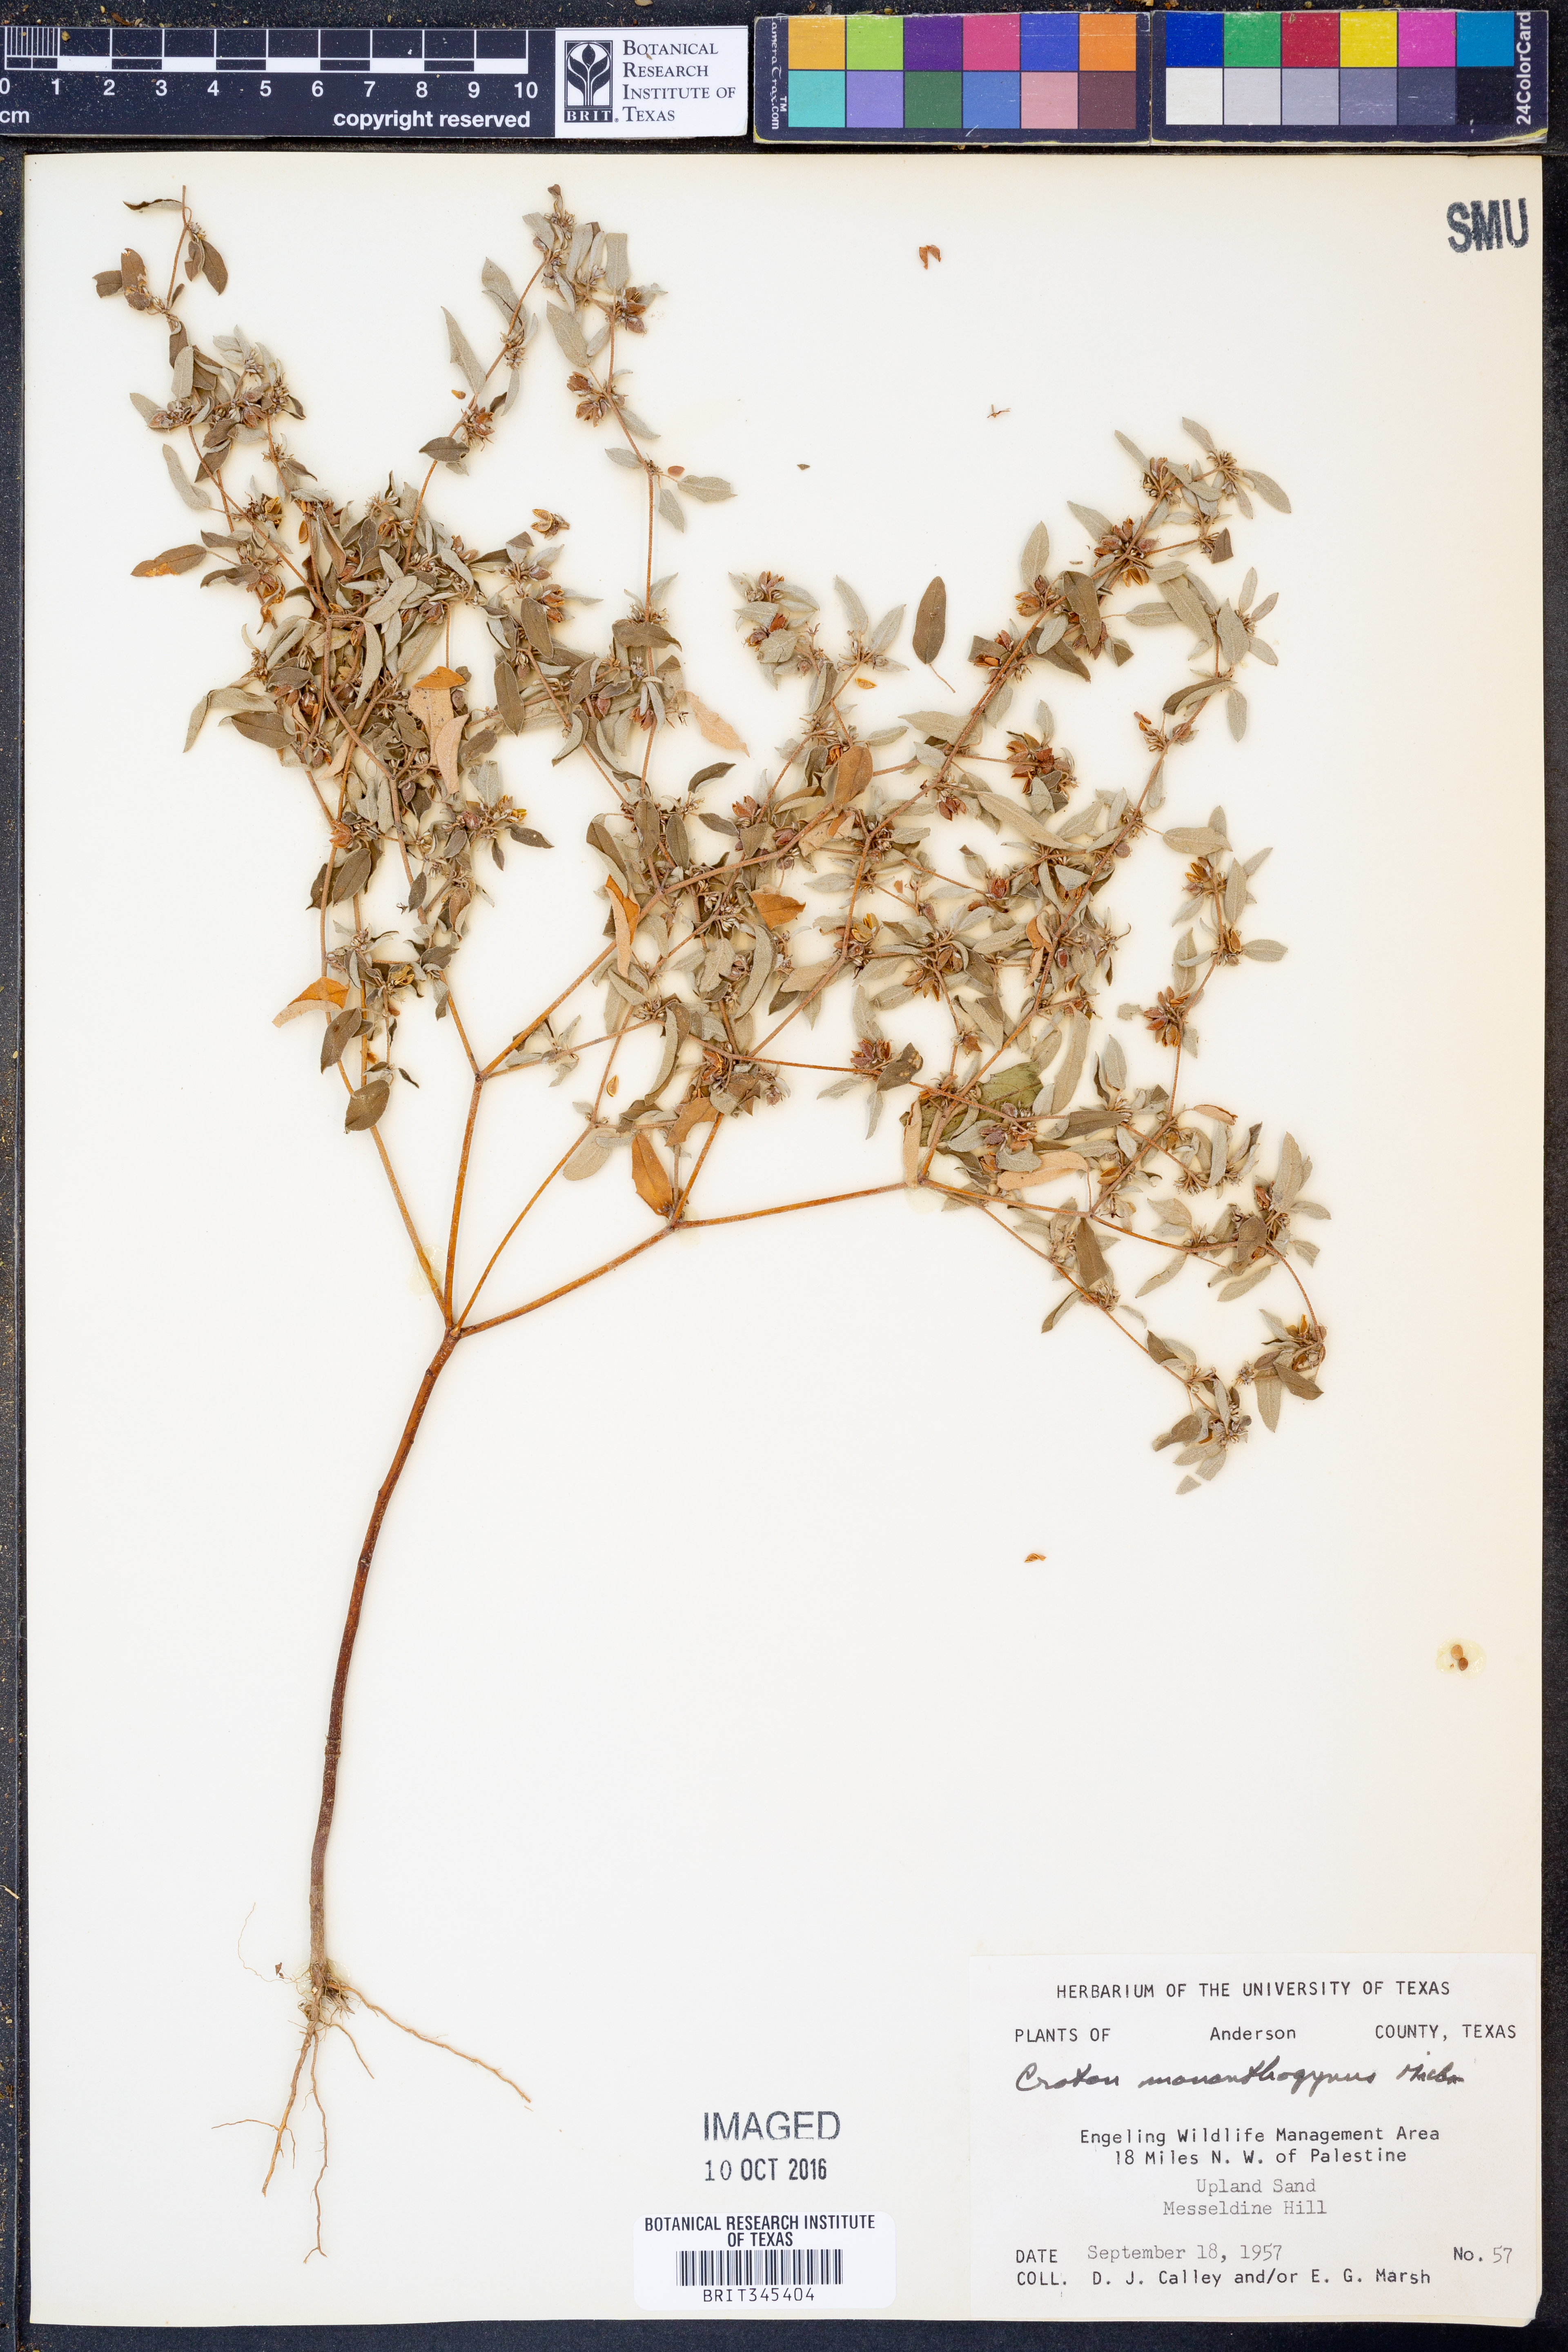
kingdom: Plantae
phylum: Tracheophyta
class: Magnoliopsida
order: Malpighiales
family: Euphorbiaceae
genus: Croton
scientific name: Croton monanthogynus
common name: One-seed croton
